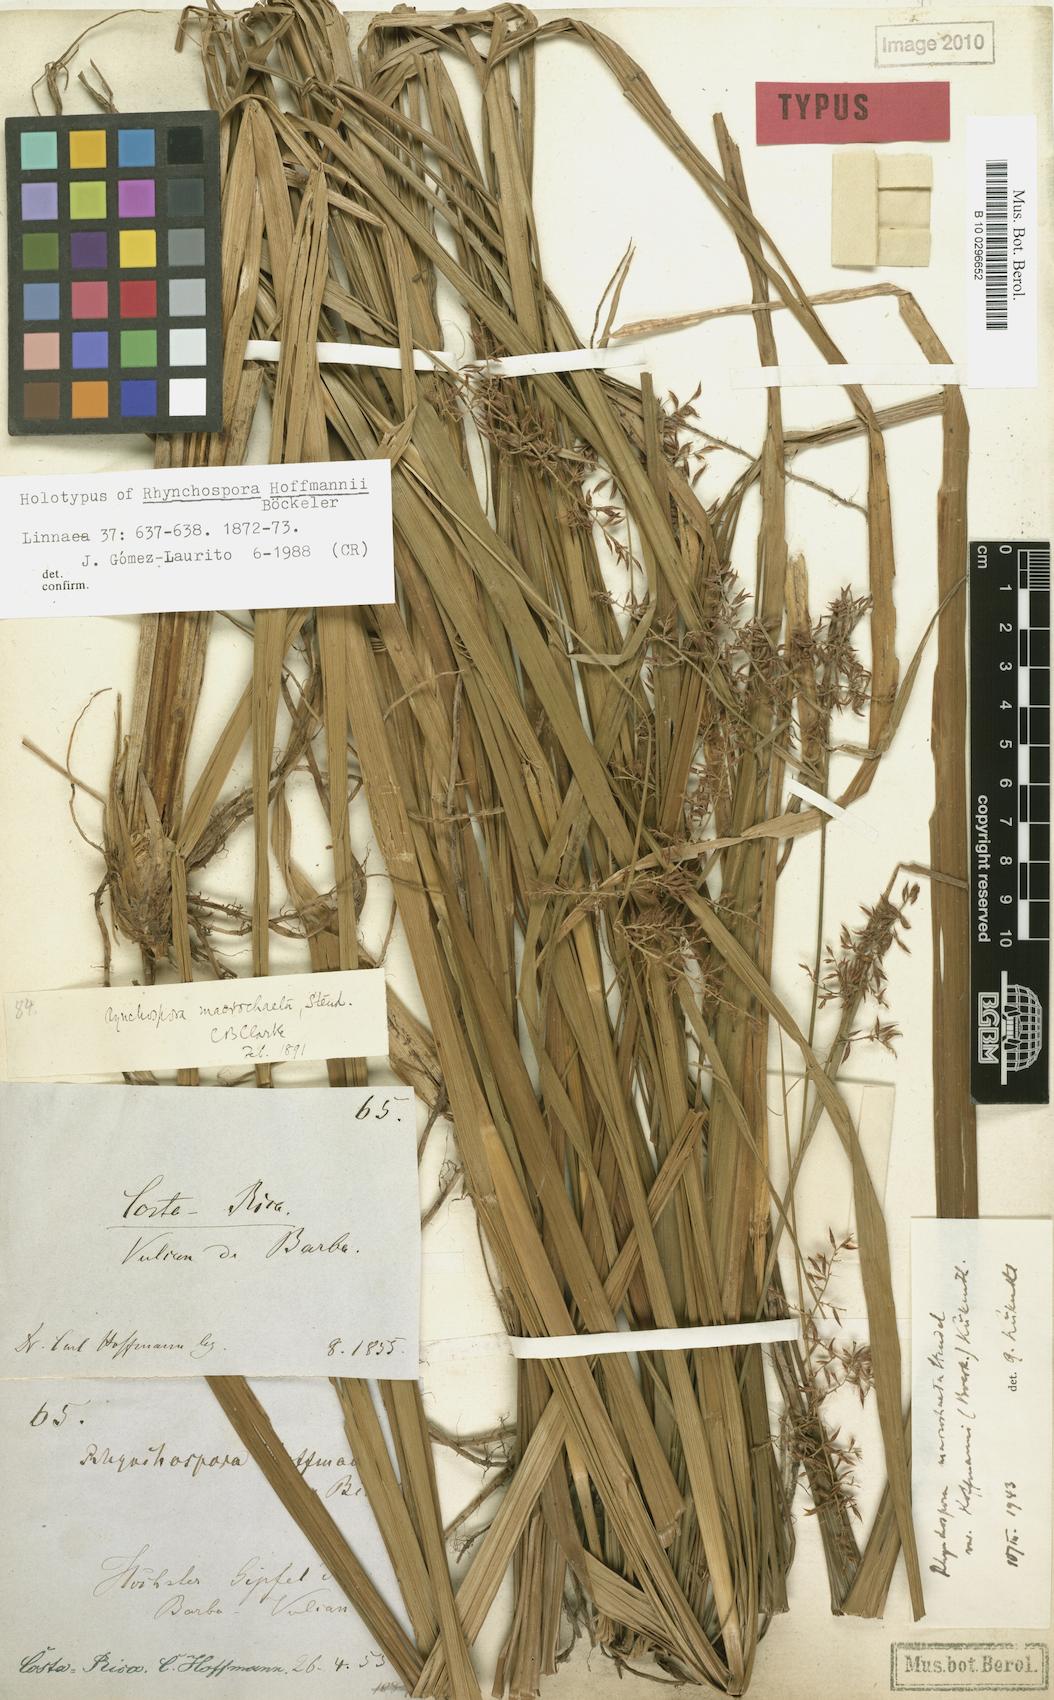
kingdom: Plantae
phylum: Tracheophyta
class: Liliopsida
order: Poales
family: Cyperaceae
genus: Rhynchospora
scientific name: Rhynchospora vulcani
